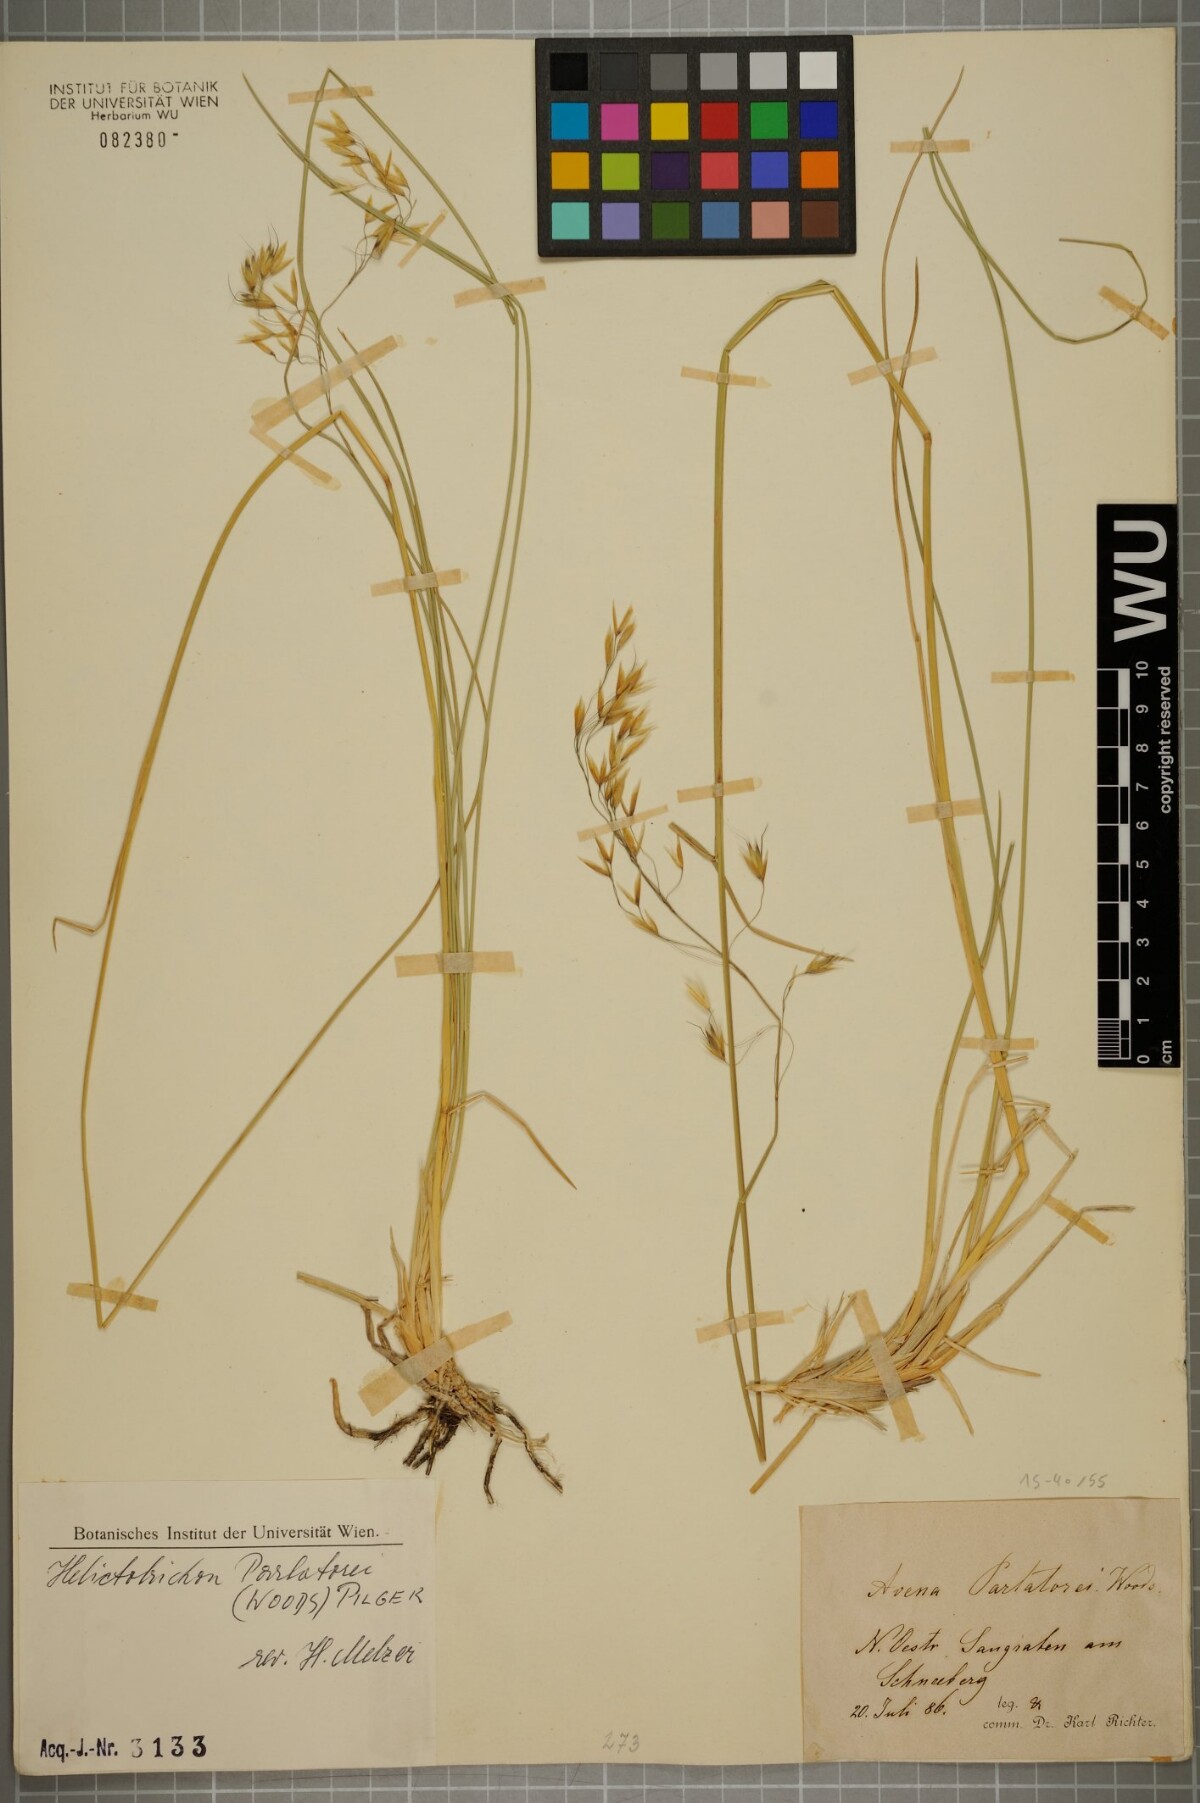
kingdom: Plantae
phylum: Tracheophyta
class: Liliopsida
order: Poales
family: Poaceae
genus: Helictotrichon
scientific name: Helictotrichon parlatorei
